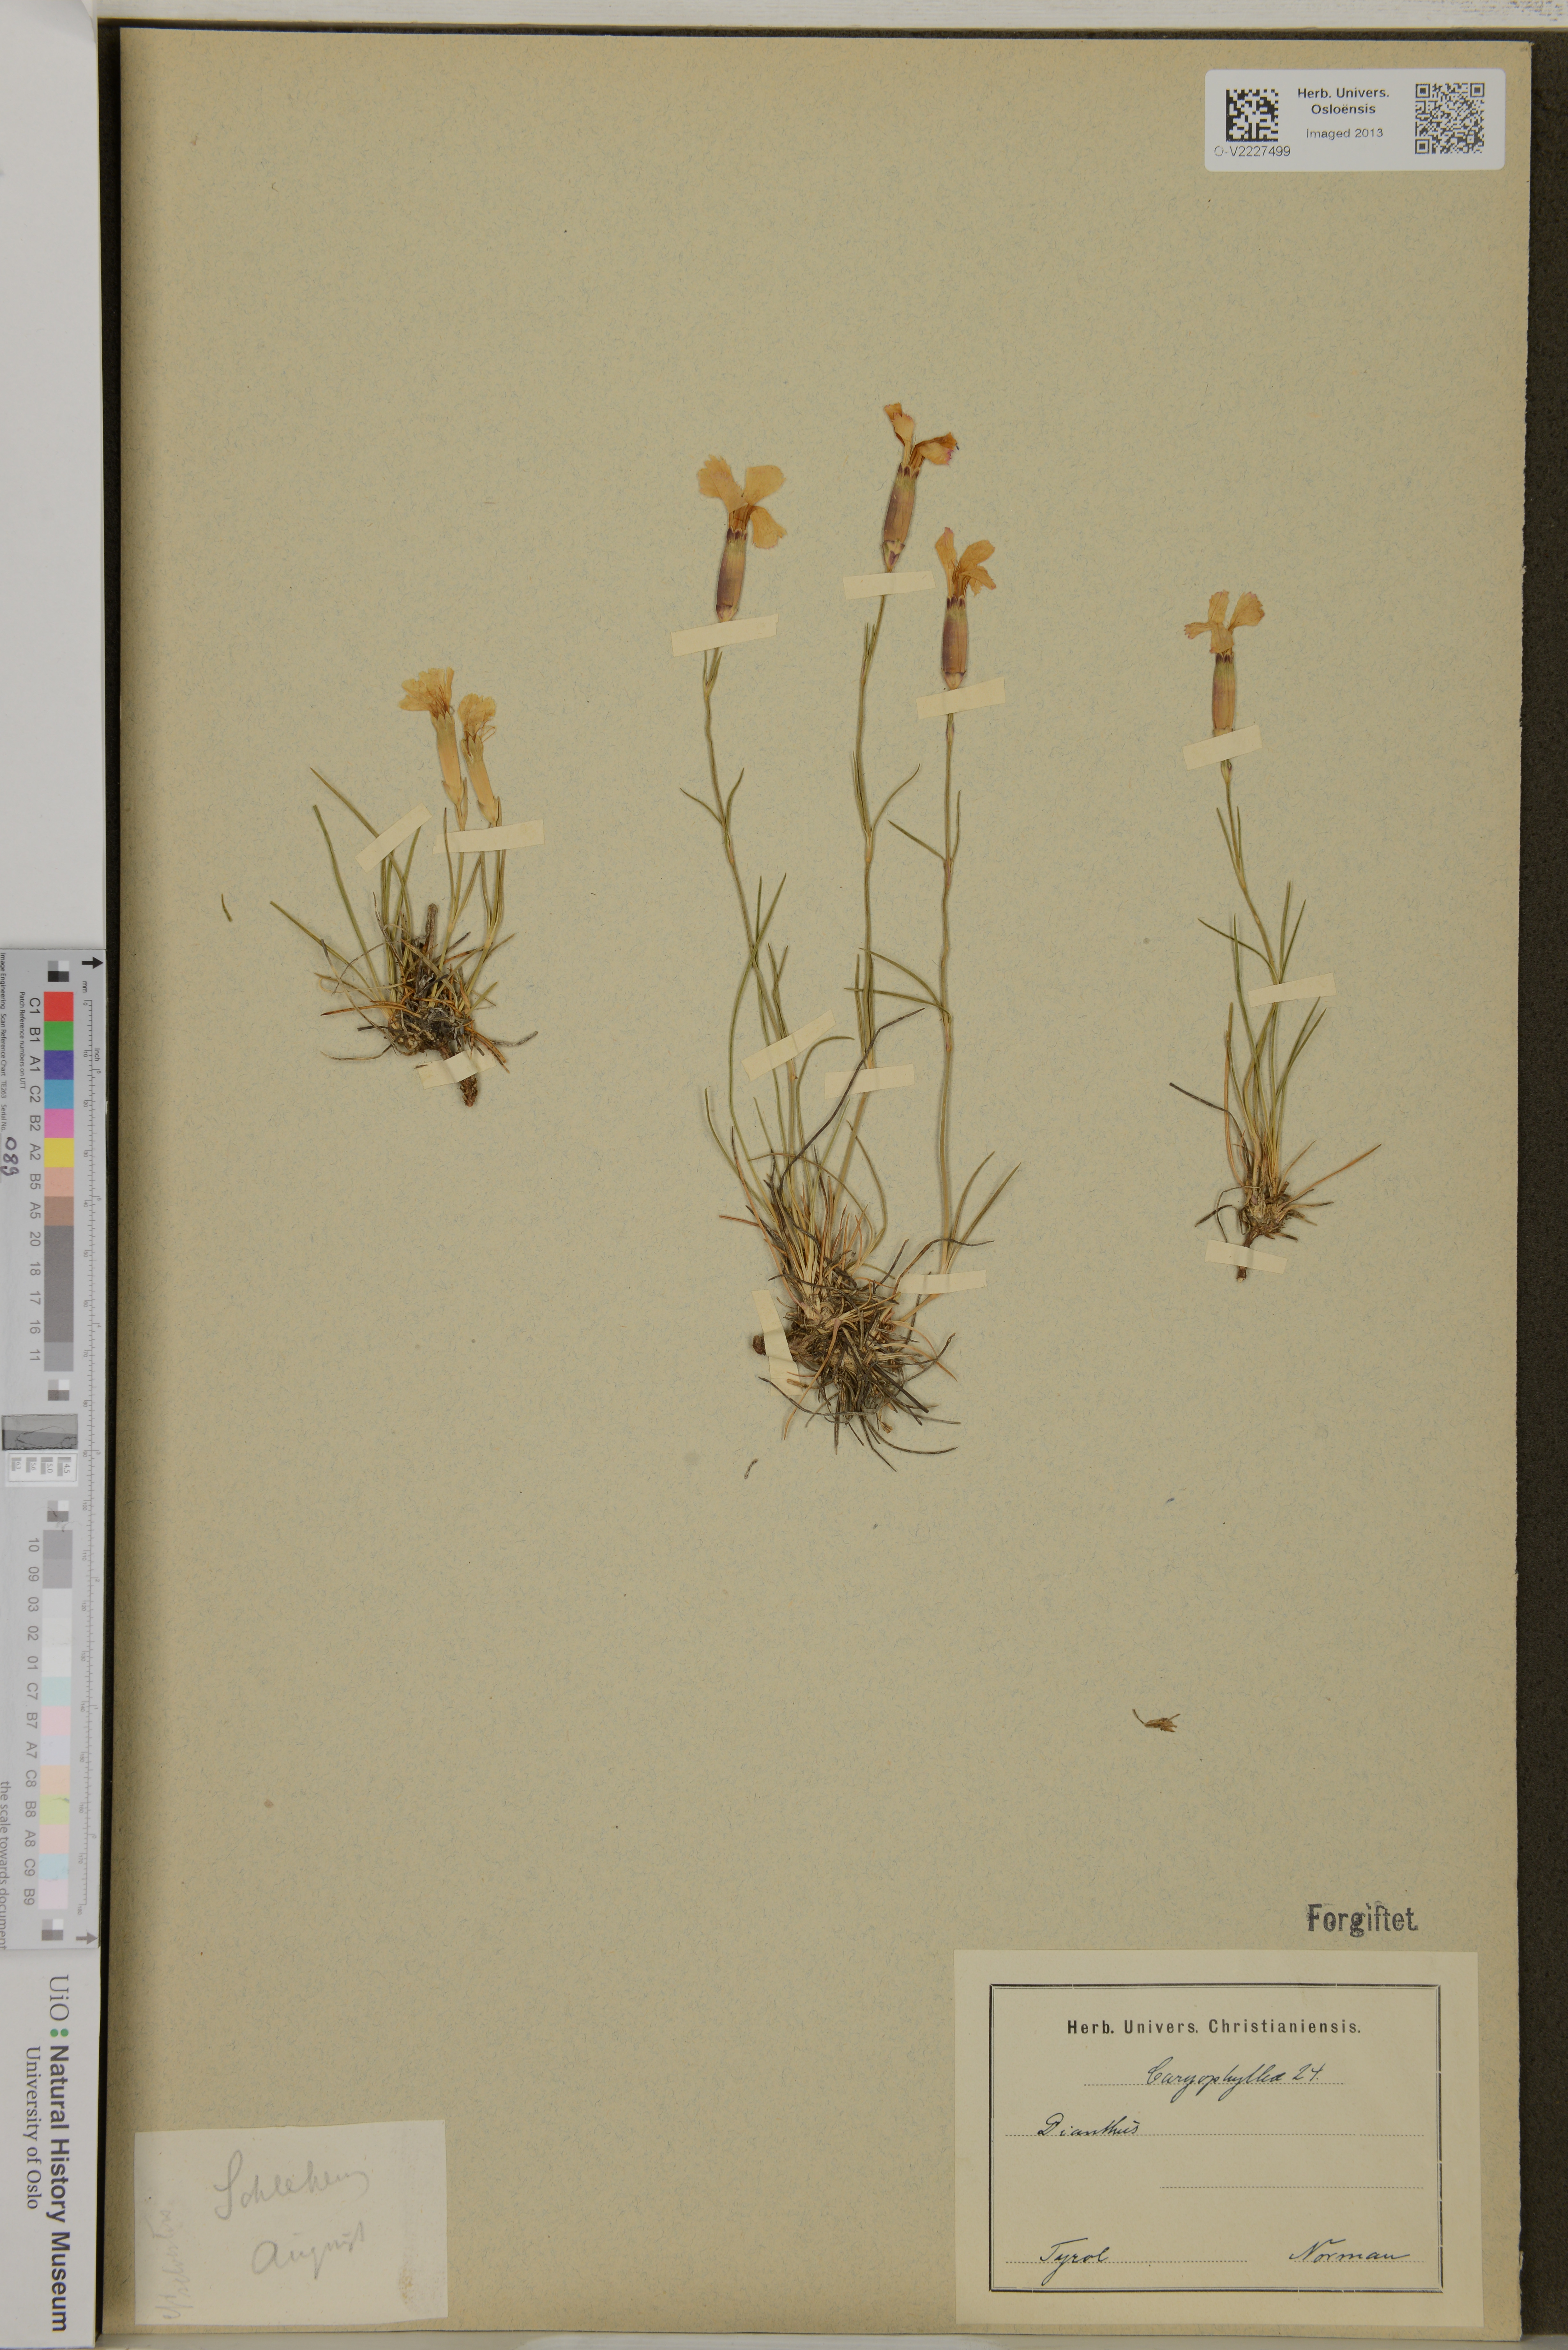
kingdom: Plantae
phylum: Tracheophyta
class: Magnoliopsida
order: Caryophyllales
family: Caryophyllaceae
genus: Dianthus
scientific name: Dianthus
